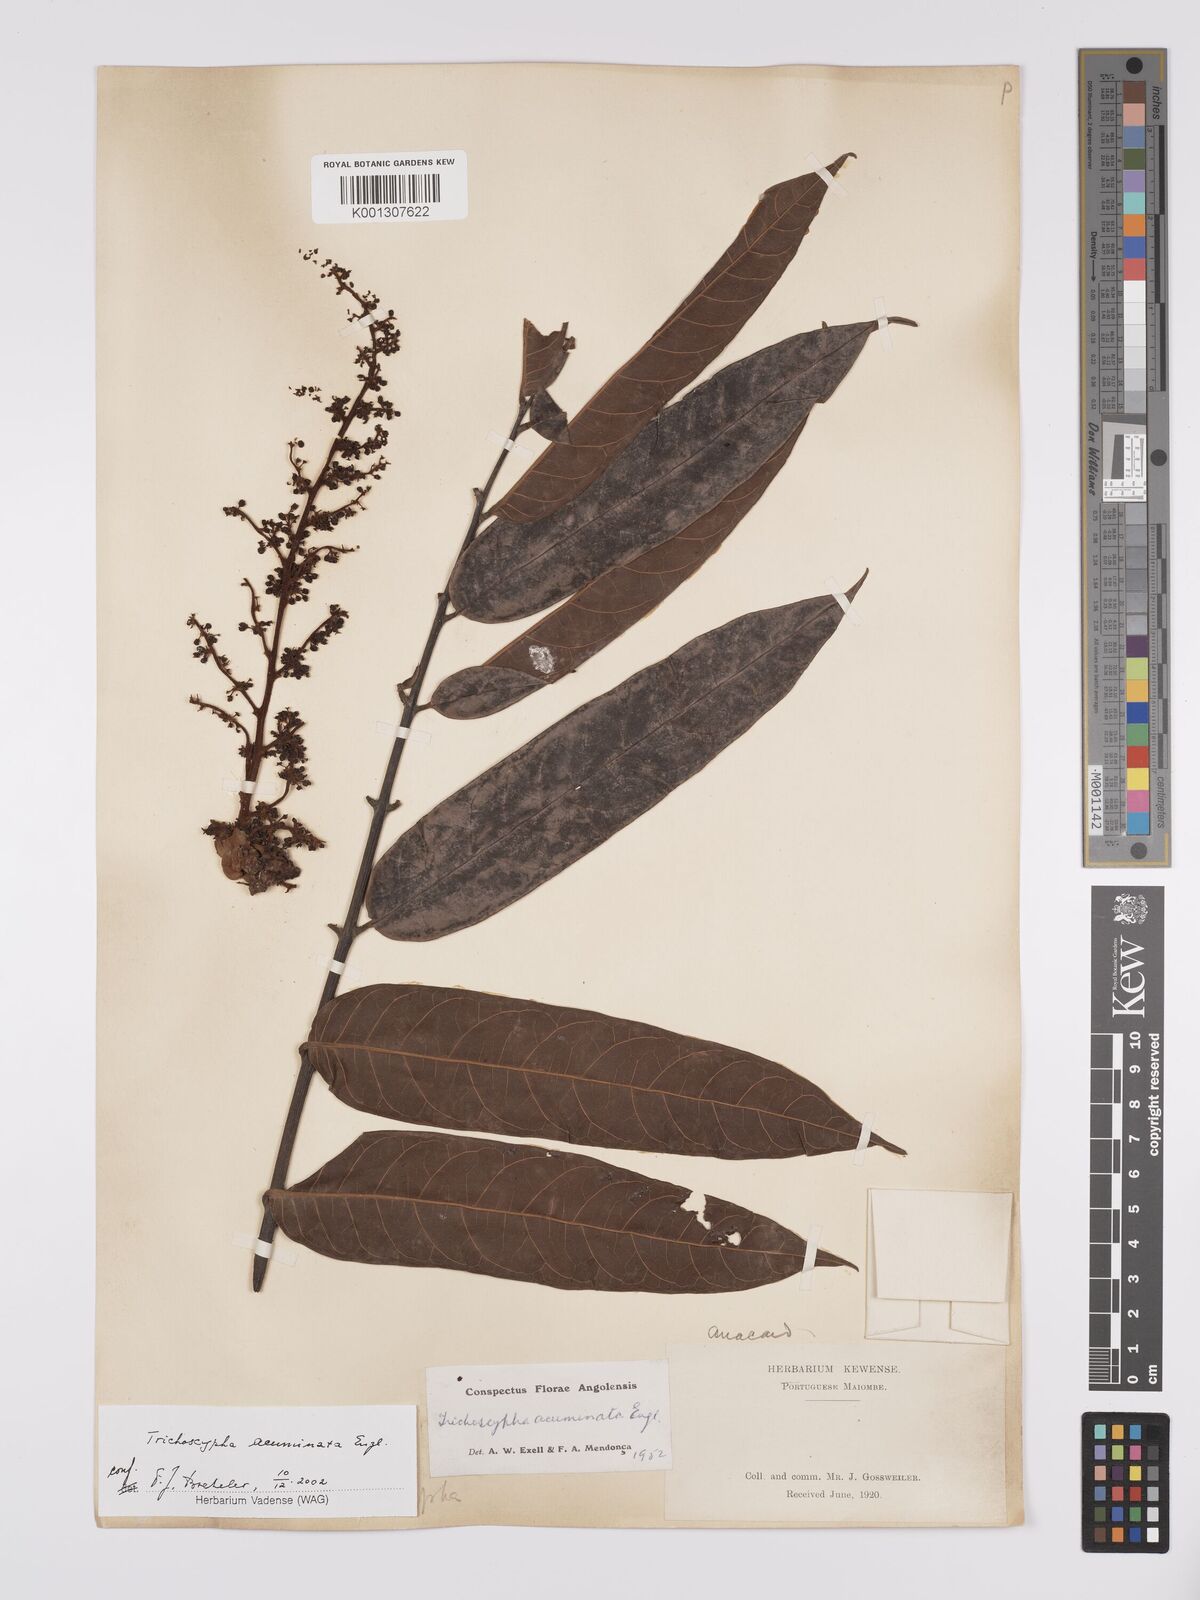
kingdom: Plantae
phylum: Tracheophyta
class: Magnoliopsida
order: Sapindales
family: Anacardiaceae
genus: Trichoscypha
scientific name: Trichoscypha acuminata
